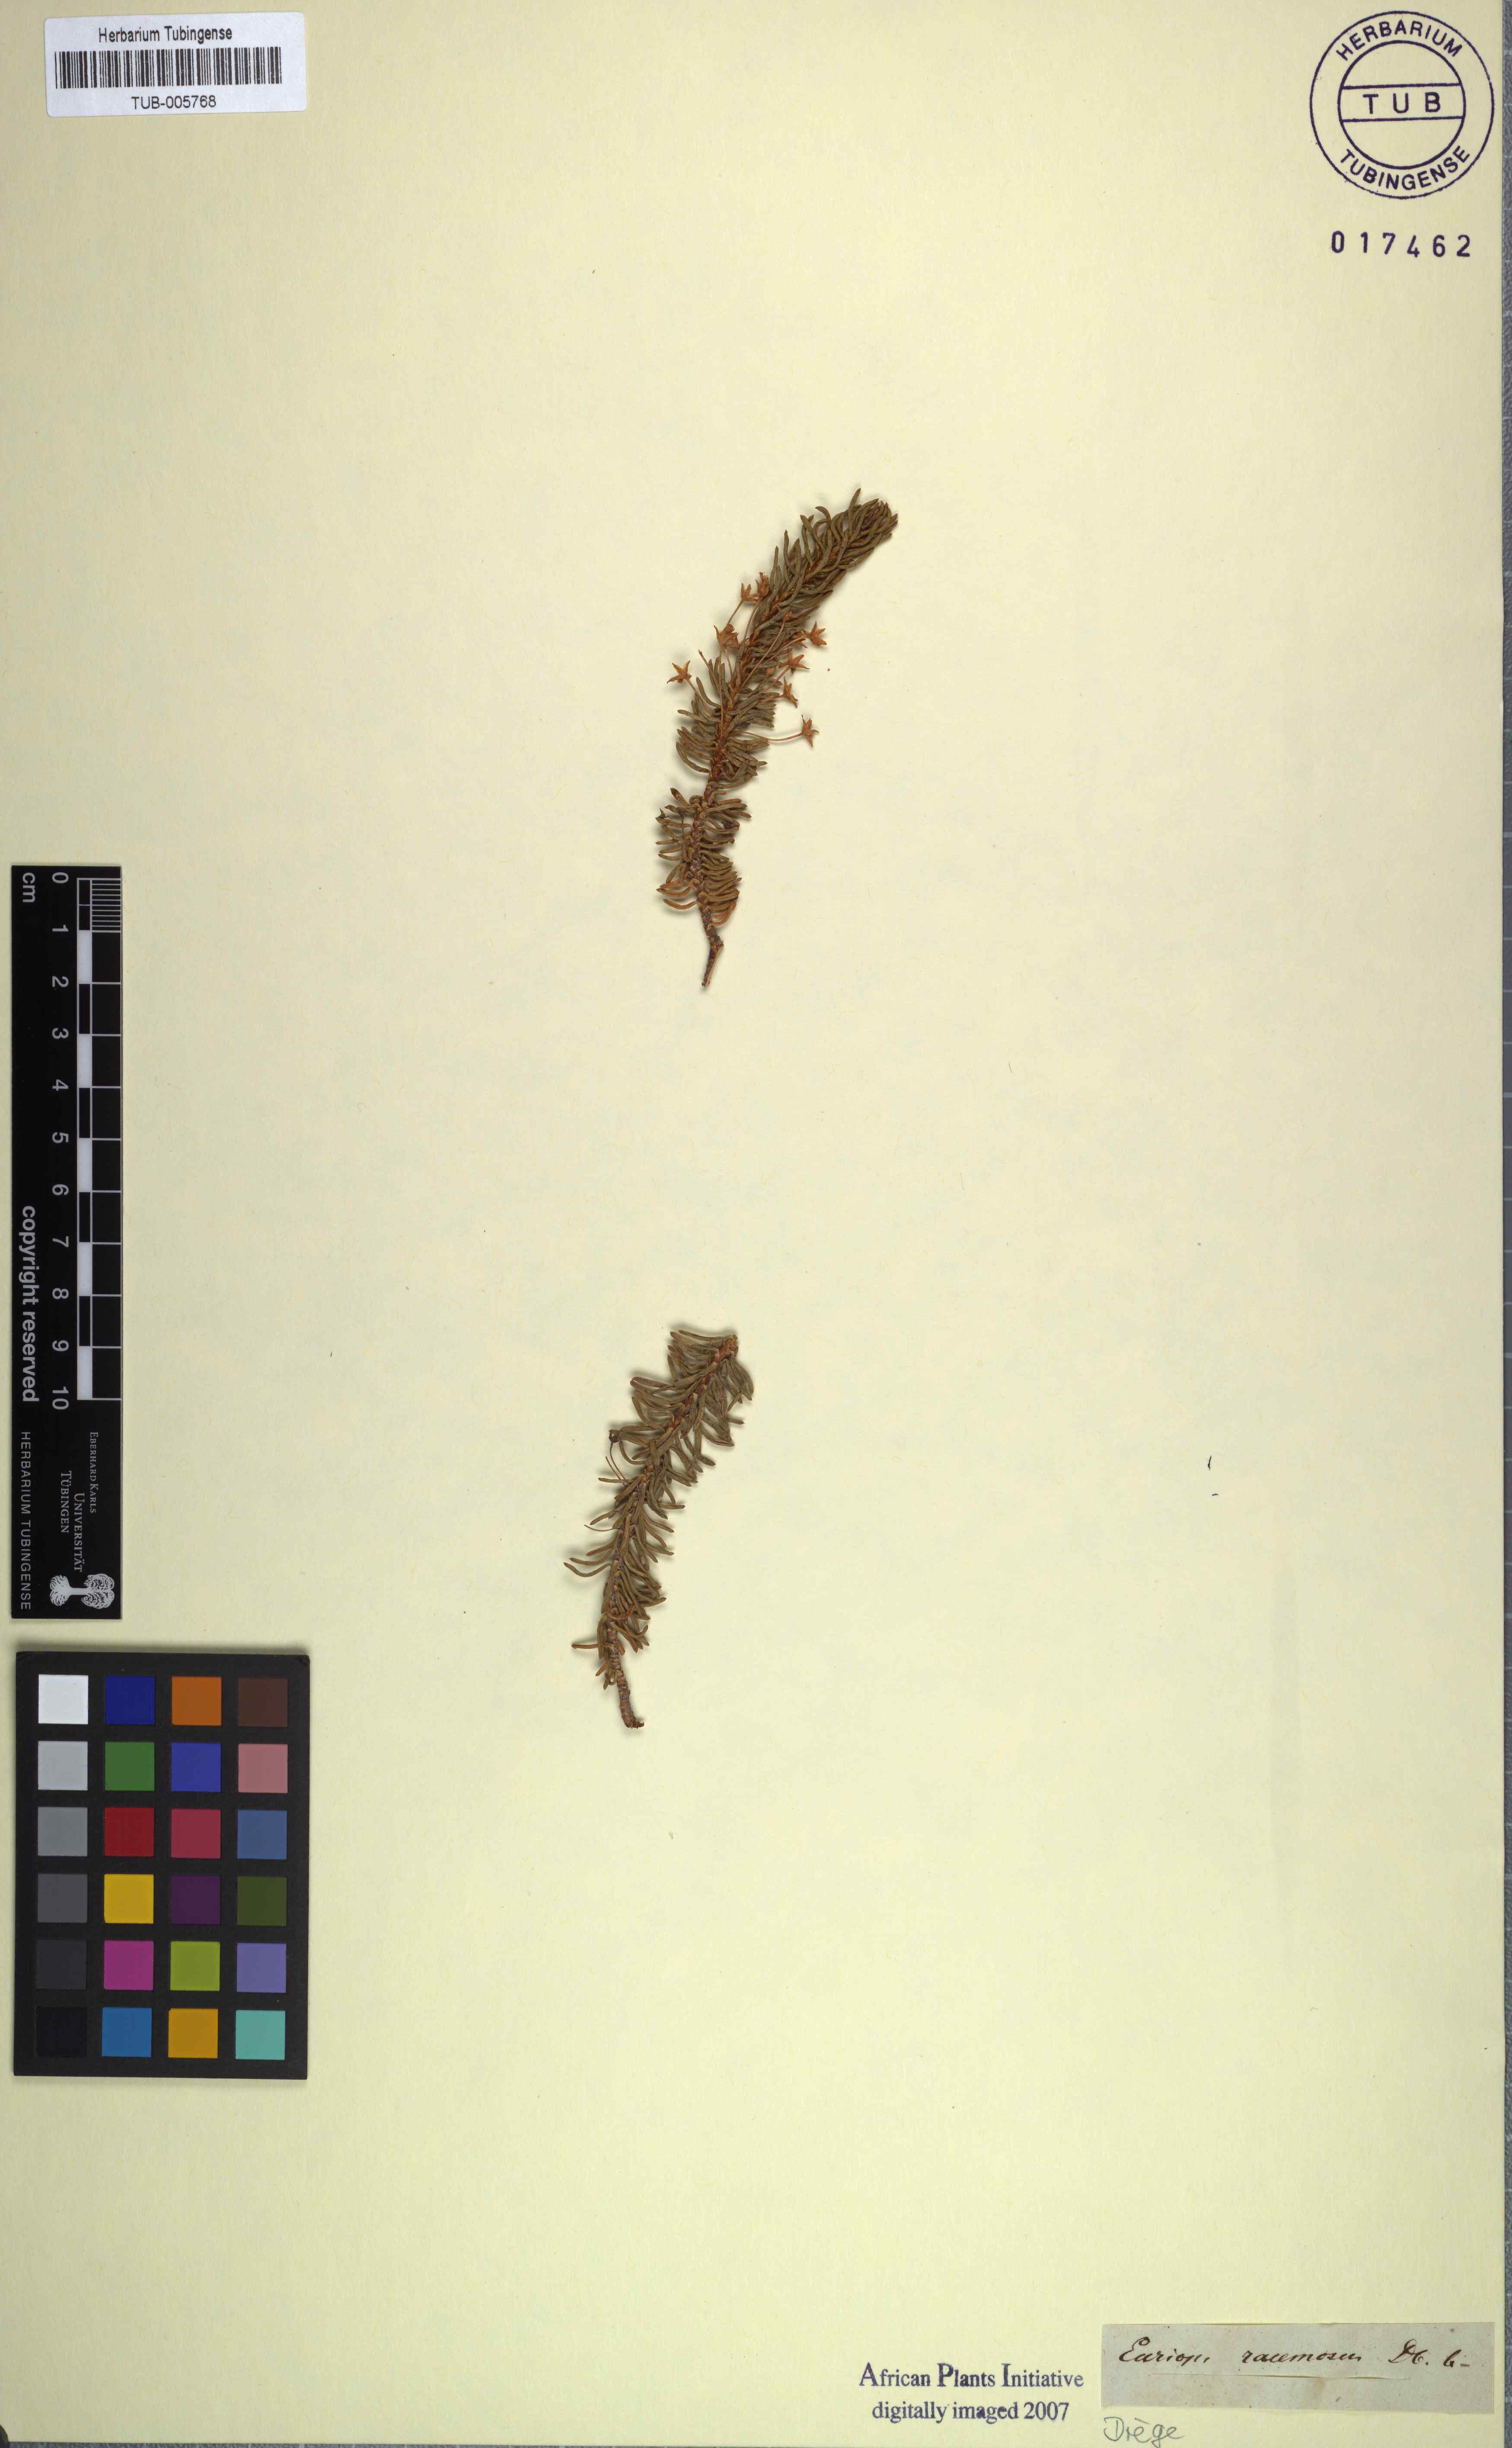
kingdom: Plantae
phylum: Tracheophyta
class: Magnoliopsida
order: Asterales
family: Asteraceae
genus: Euryops
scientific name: Euryops oligoglossus
